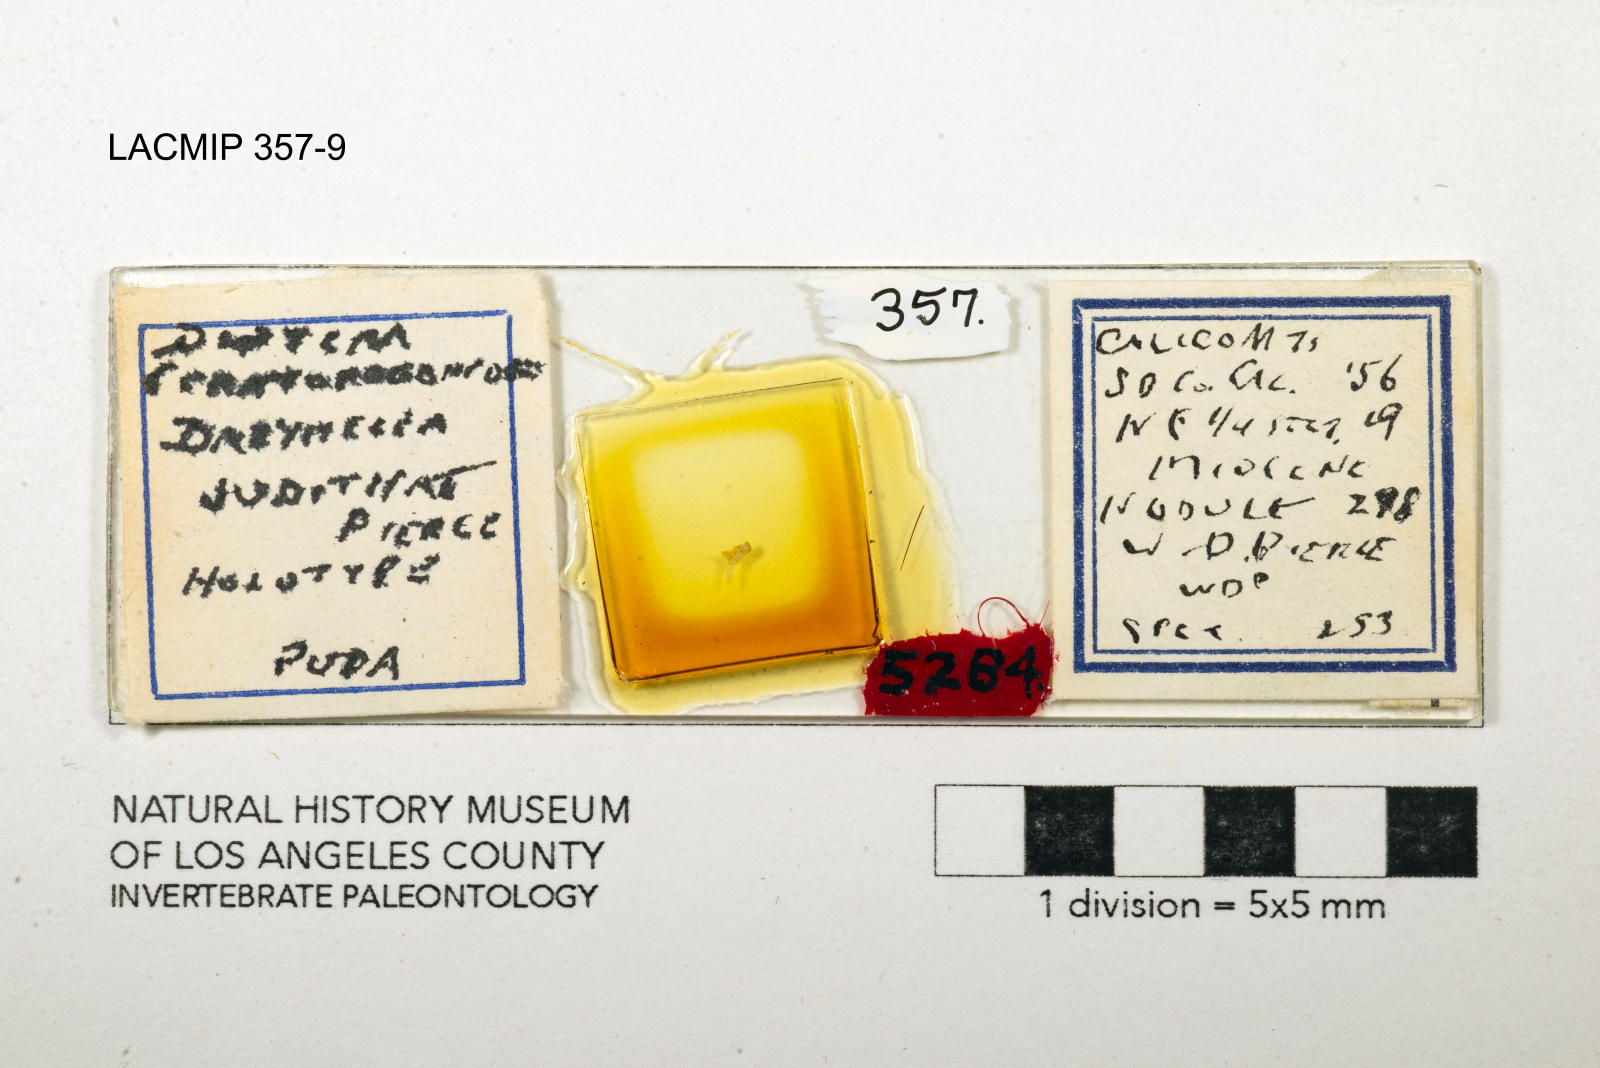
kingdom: Animalia
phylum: Arthropoda
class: Insecta
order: Diptera
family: Ceratopogonidae
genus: Dasyhelea
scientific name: Dasyhelea judithae
